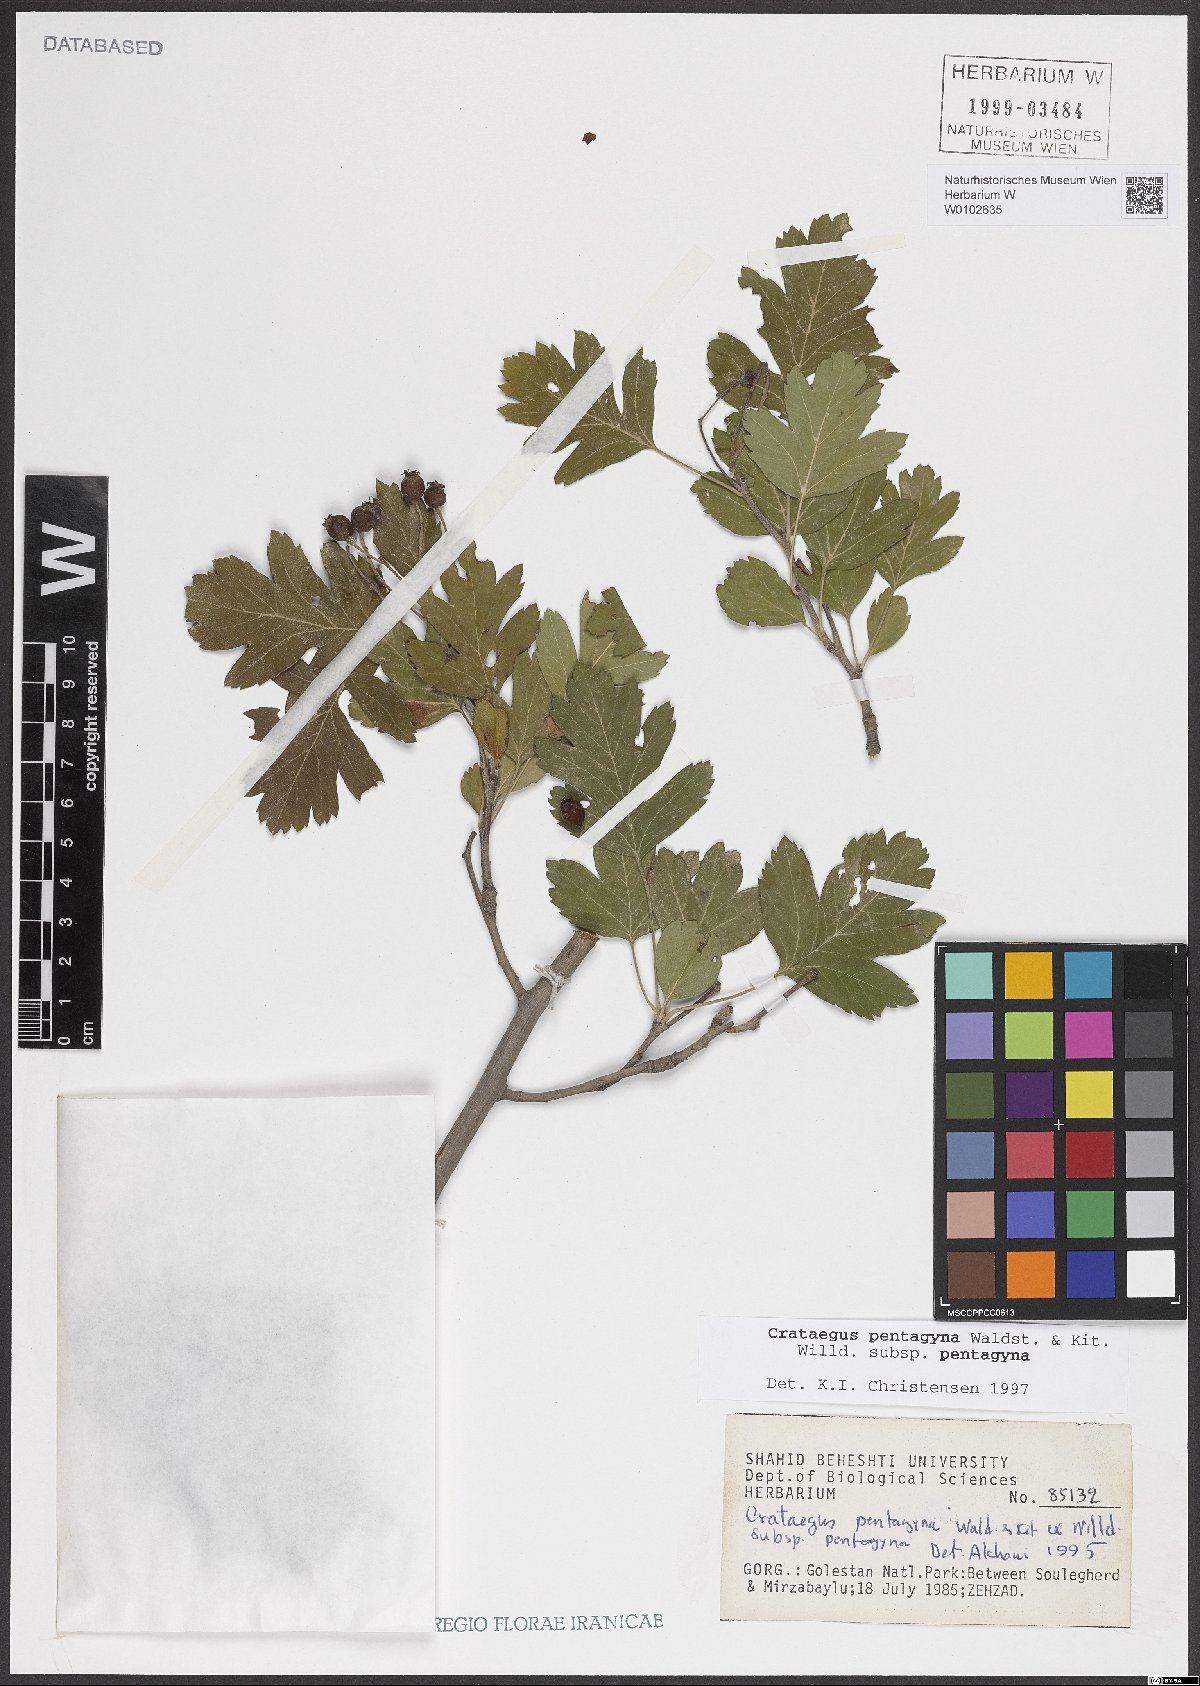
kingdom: Plantae
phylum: Tracheophyta
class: Magnoliopsida
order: Rosales
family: Rosaceae
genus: Crataegus
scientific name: Crataegus pentagyna
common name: Small-flowered black hawthorn
